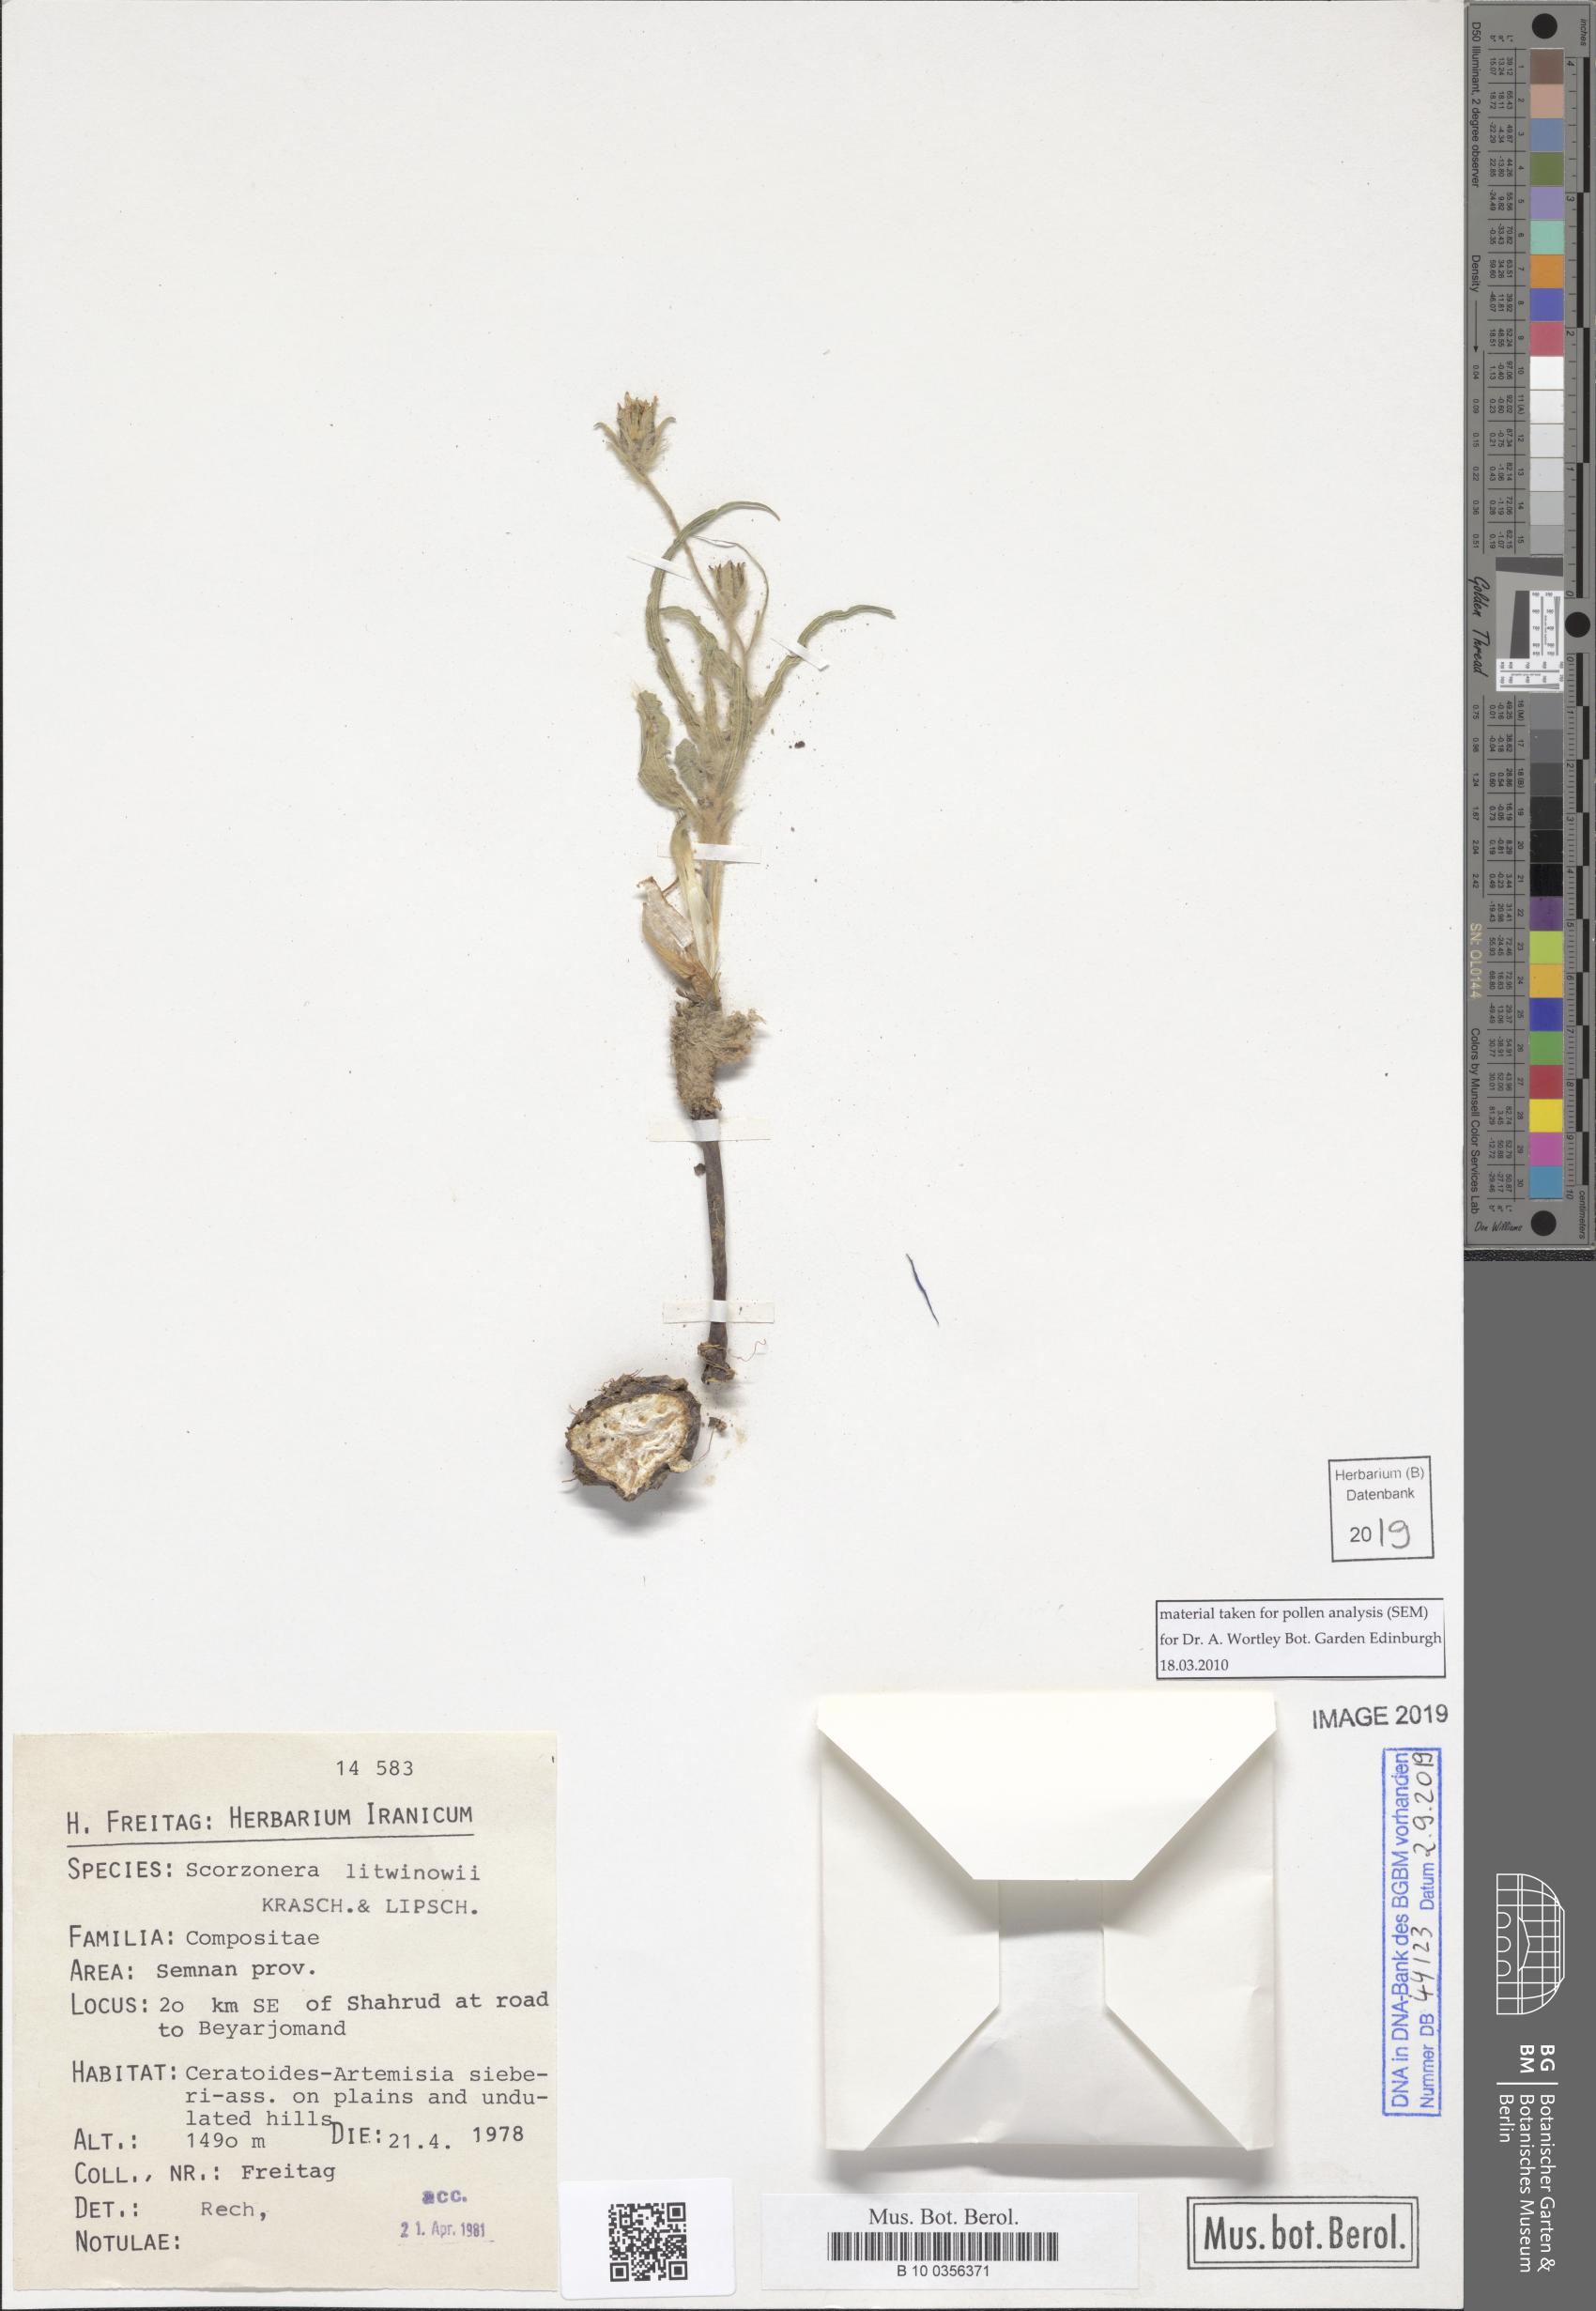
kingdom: Plantae
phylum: Tracheophyta
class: Magnoliopsida
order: Asterales
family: Asteraceae
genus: Goekyighitia
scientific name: Goekyighitia litwinowii
